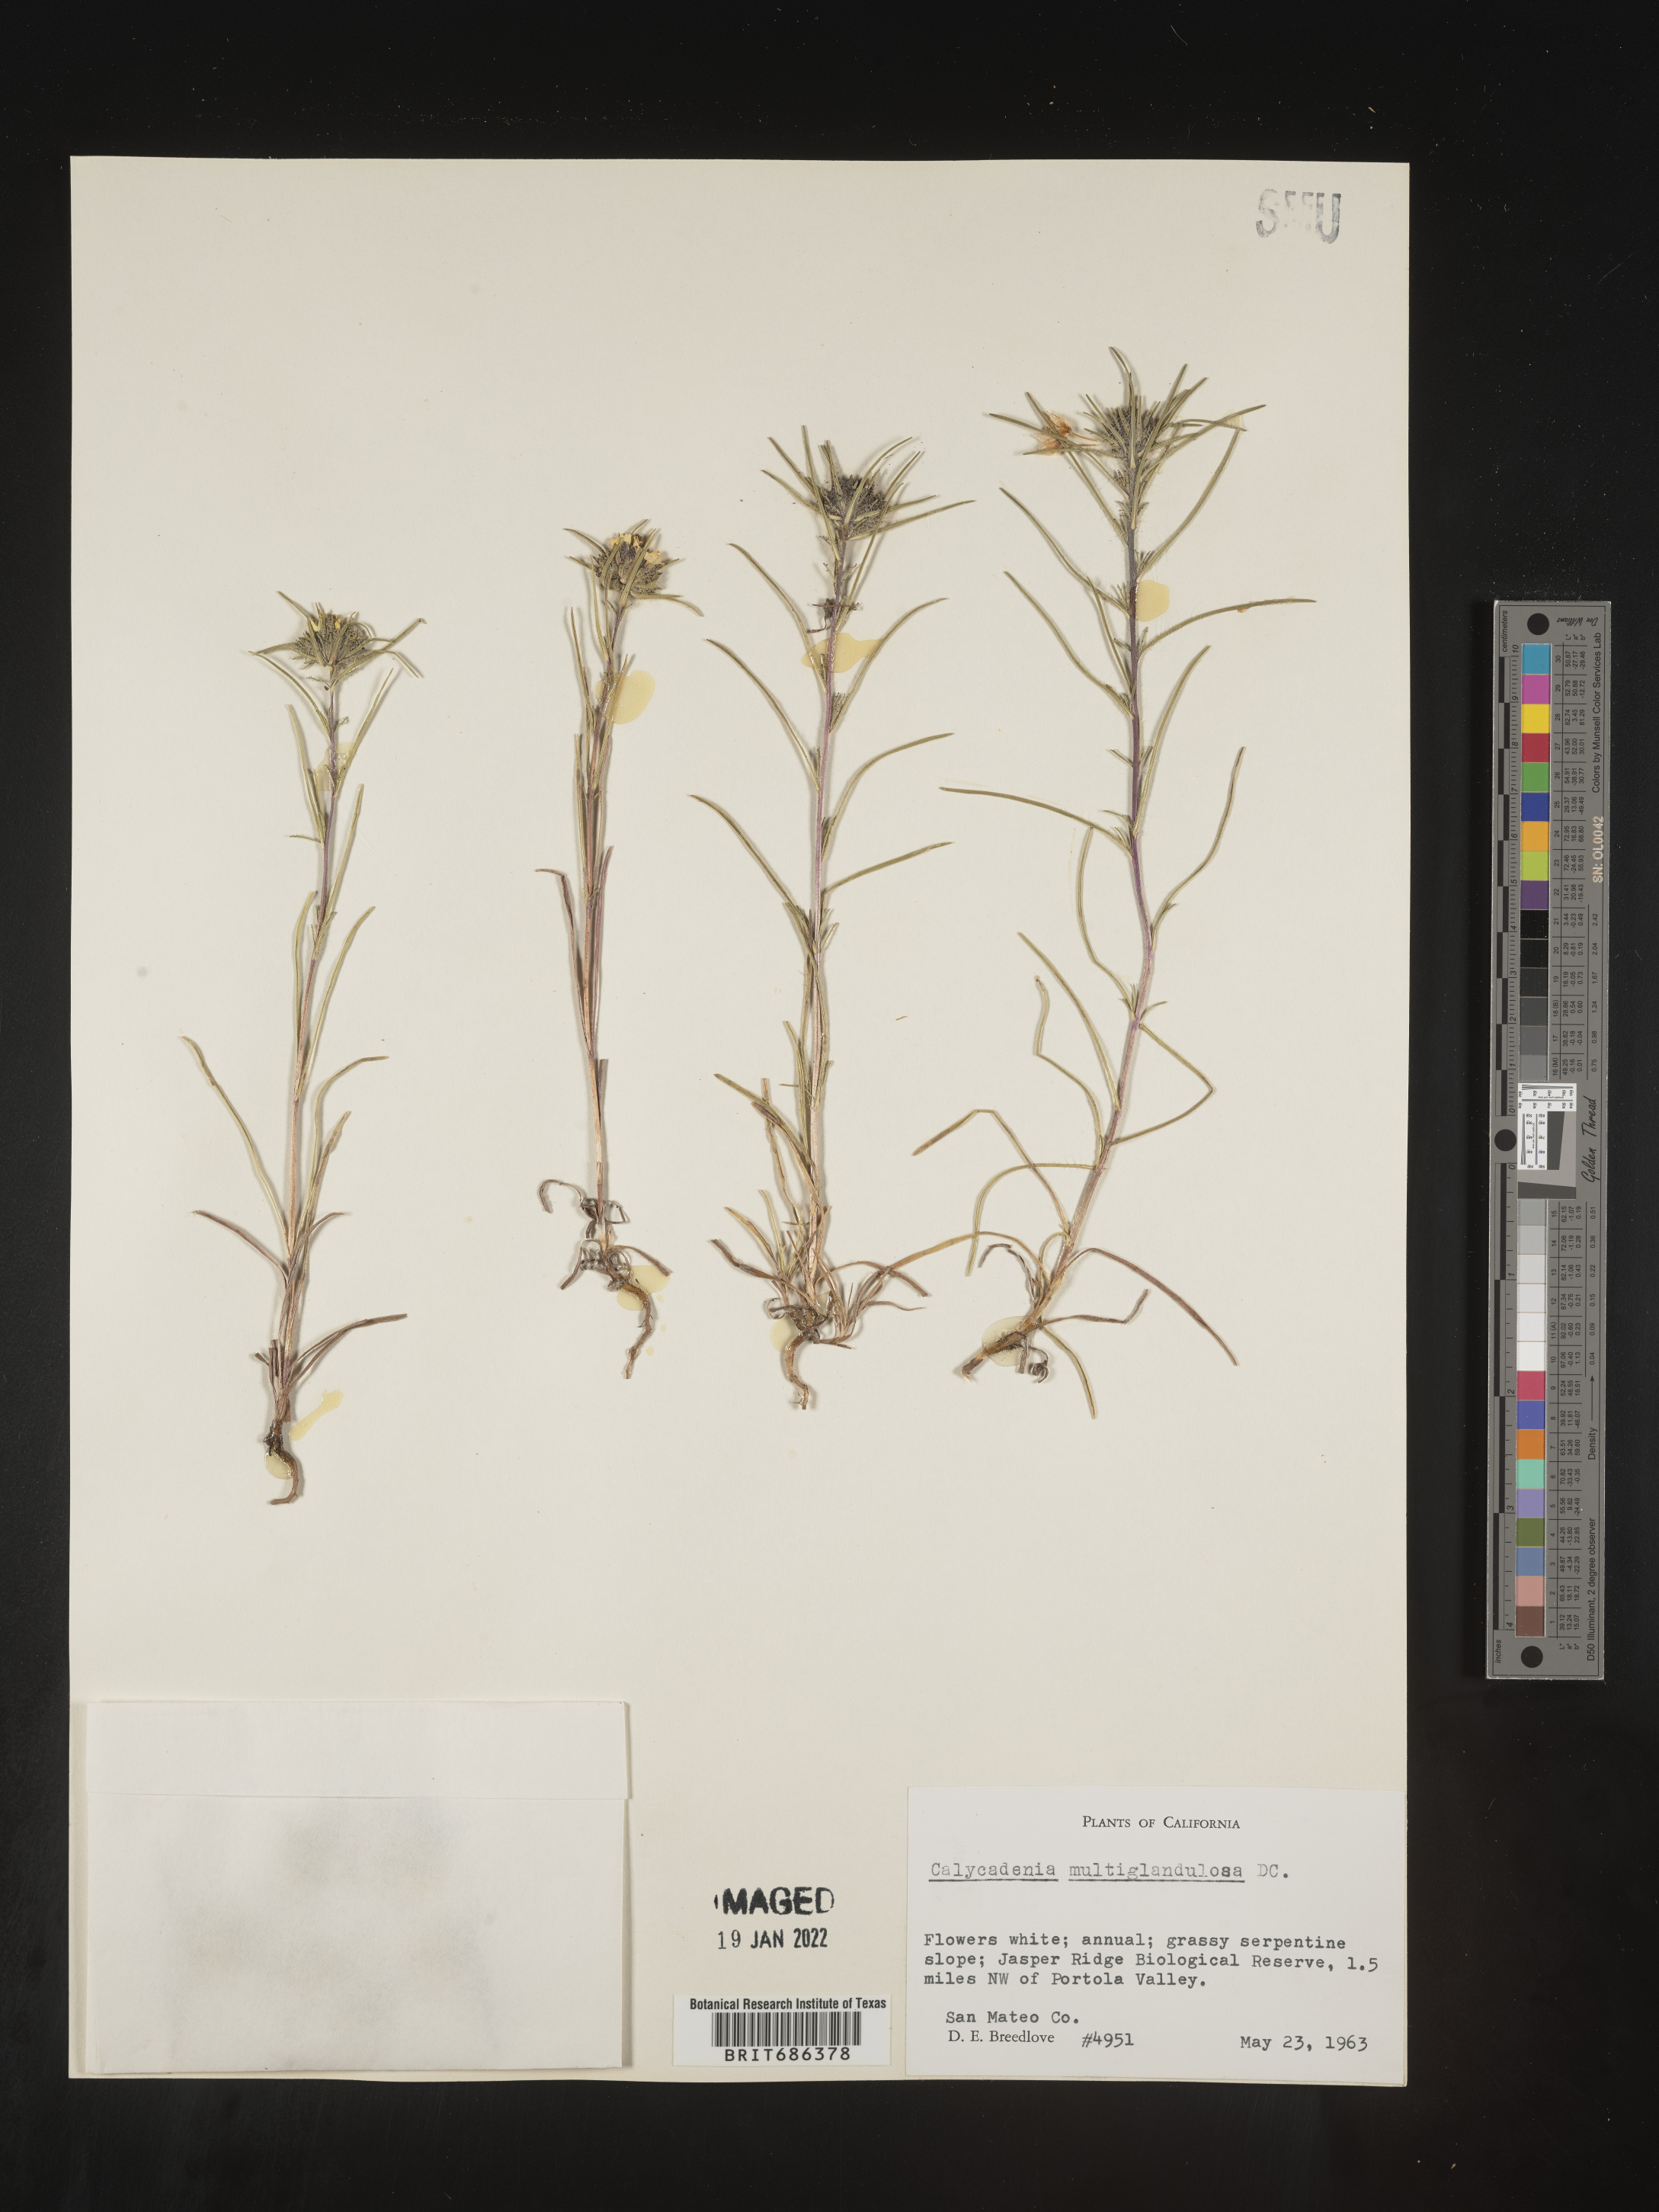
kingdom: Plantae
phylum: Tracheophyta
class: Magnoliopsida
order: Asterales
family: Asteraceae
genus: Calycadenia
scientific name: Calycadenia
